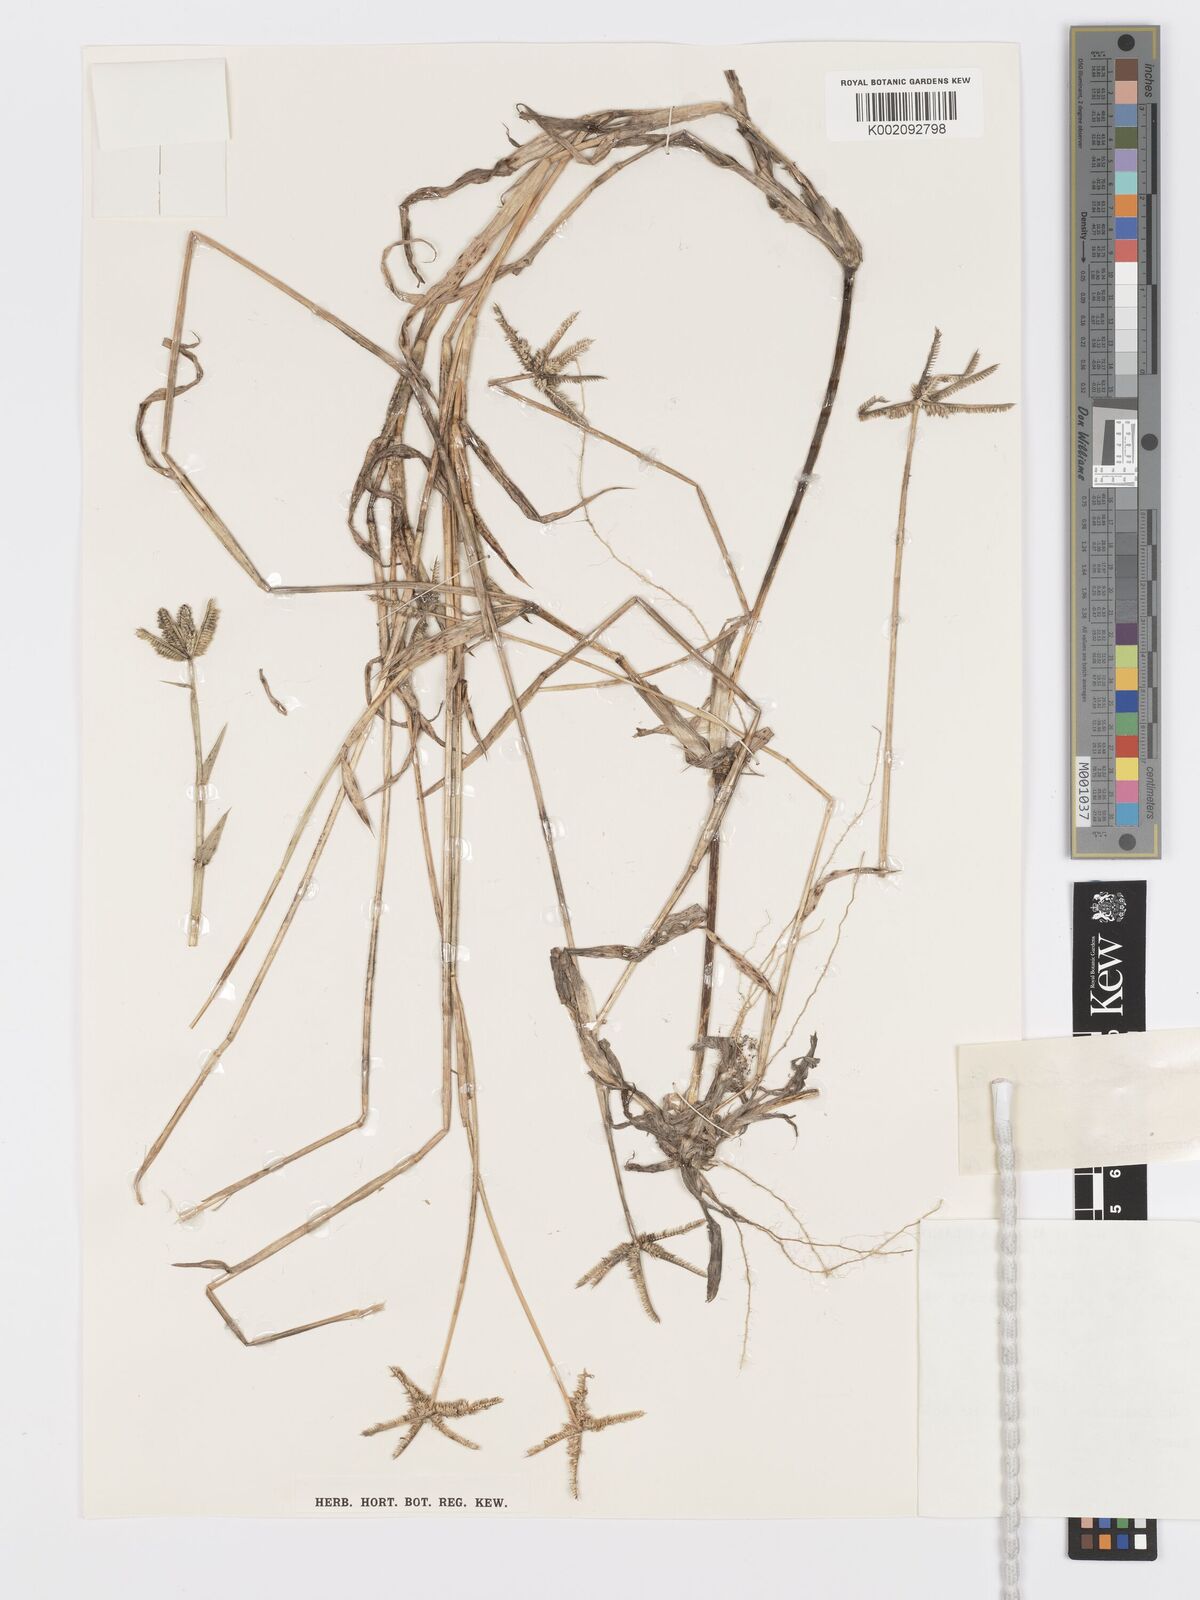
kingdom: Plantae
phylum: Tracheophyta
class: Liliopsida
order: Poales
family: Poaceae
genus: Dactyloctenium
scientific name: Dactyloctenium ctenoides
